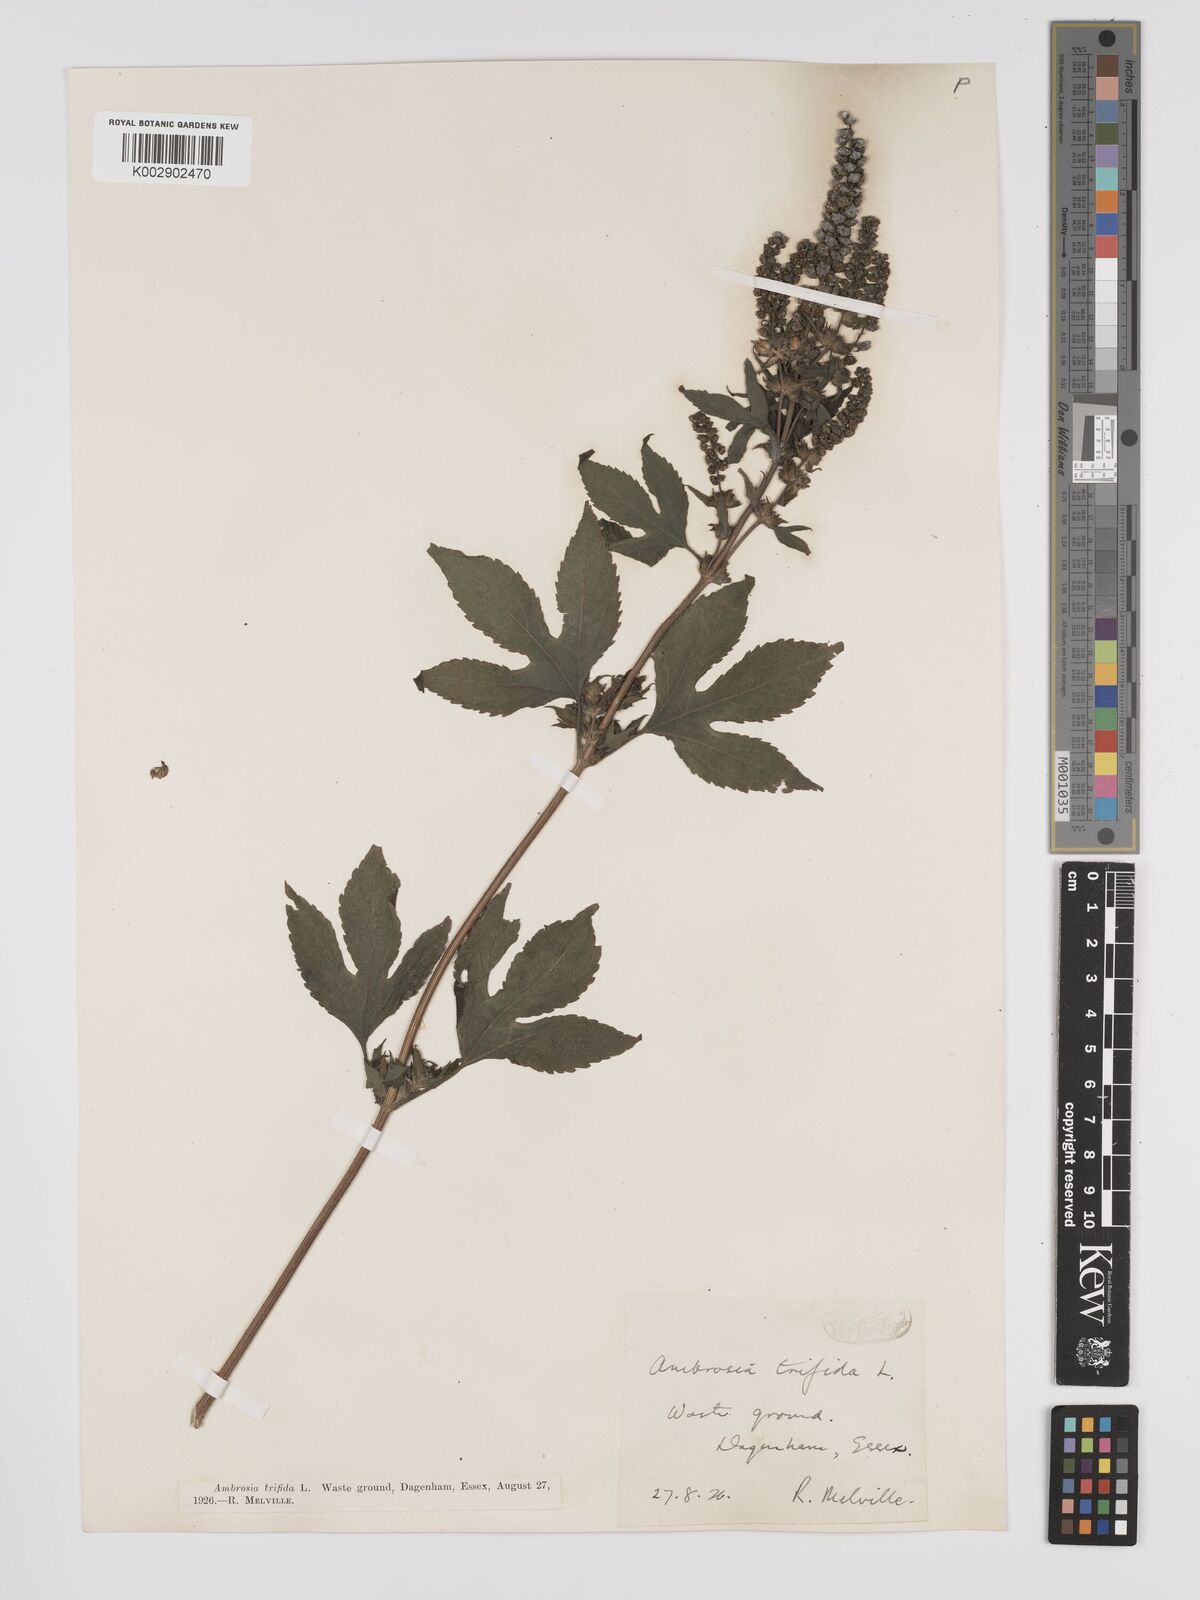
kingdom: Plantae
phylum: Tracheophyta
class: Magnoliopsida
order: Asterales
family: Asteraceae
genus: Ambrosia
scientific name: Ambrosia trifida
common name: Giant ragweed
